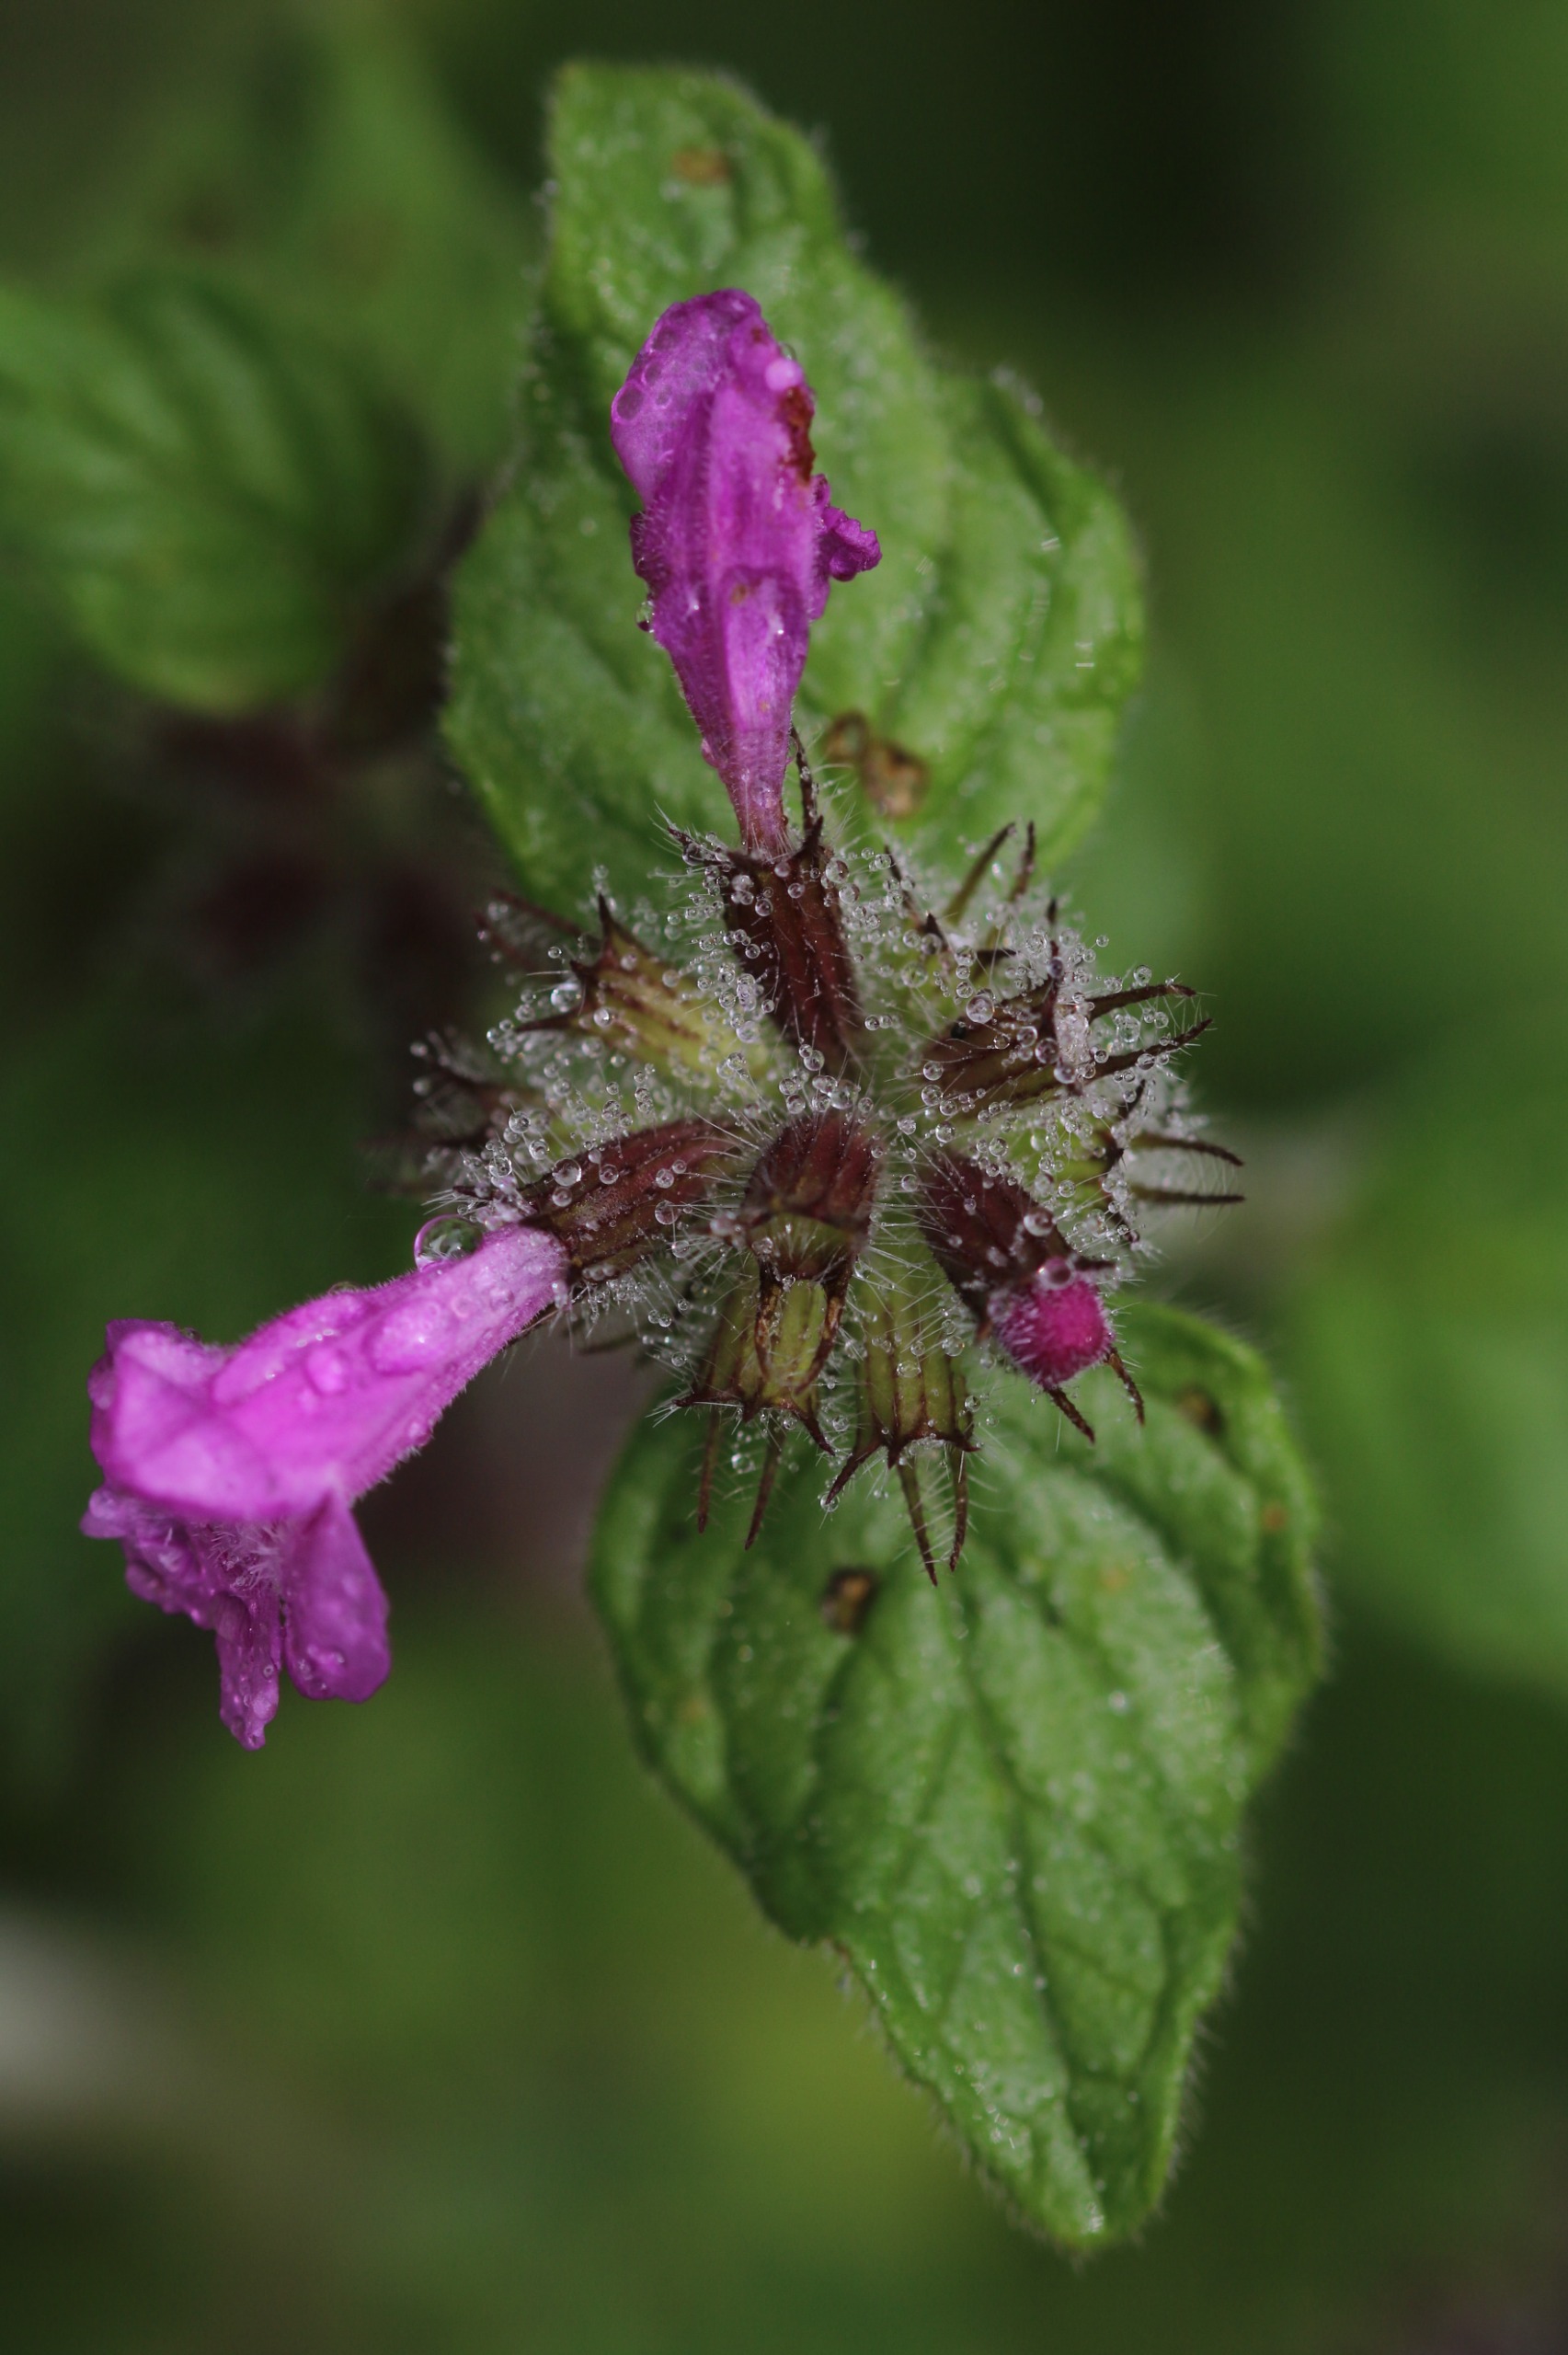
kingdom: Plantae
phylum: Tracheophyta
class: Magnoliopsida
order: Lamiales
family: Lamiaceae
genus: Clinopodium
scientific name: Clinopodium vulgare
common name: Kransbørste
